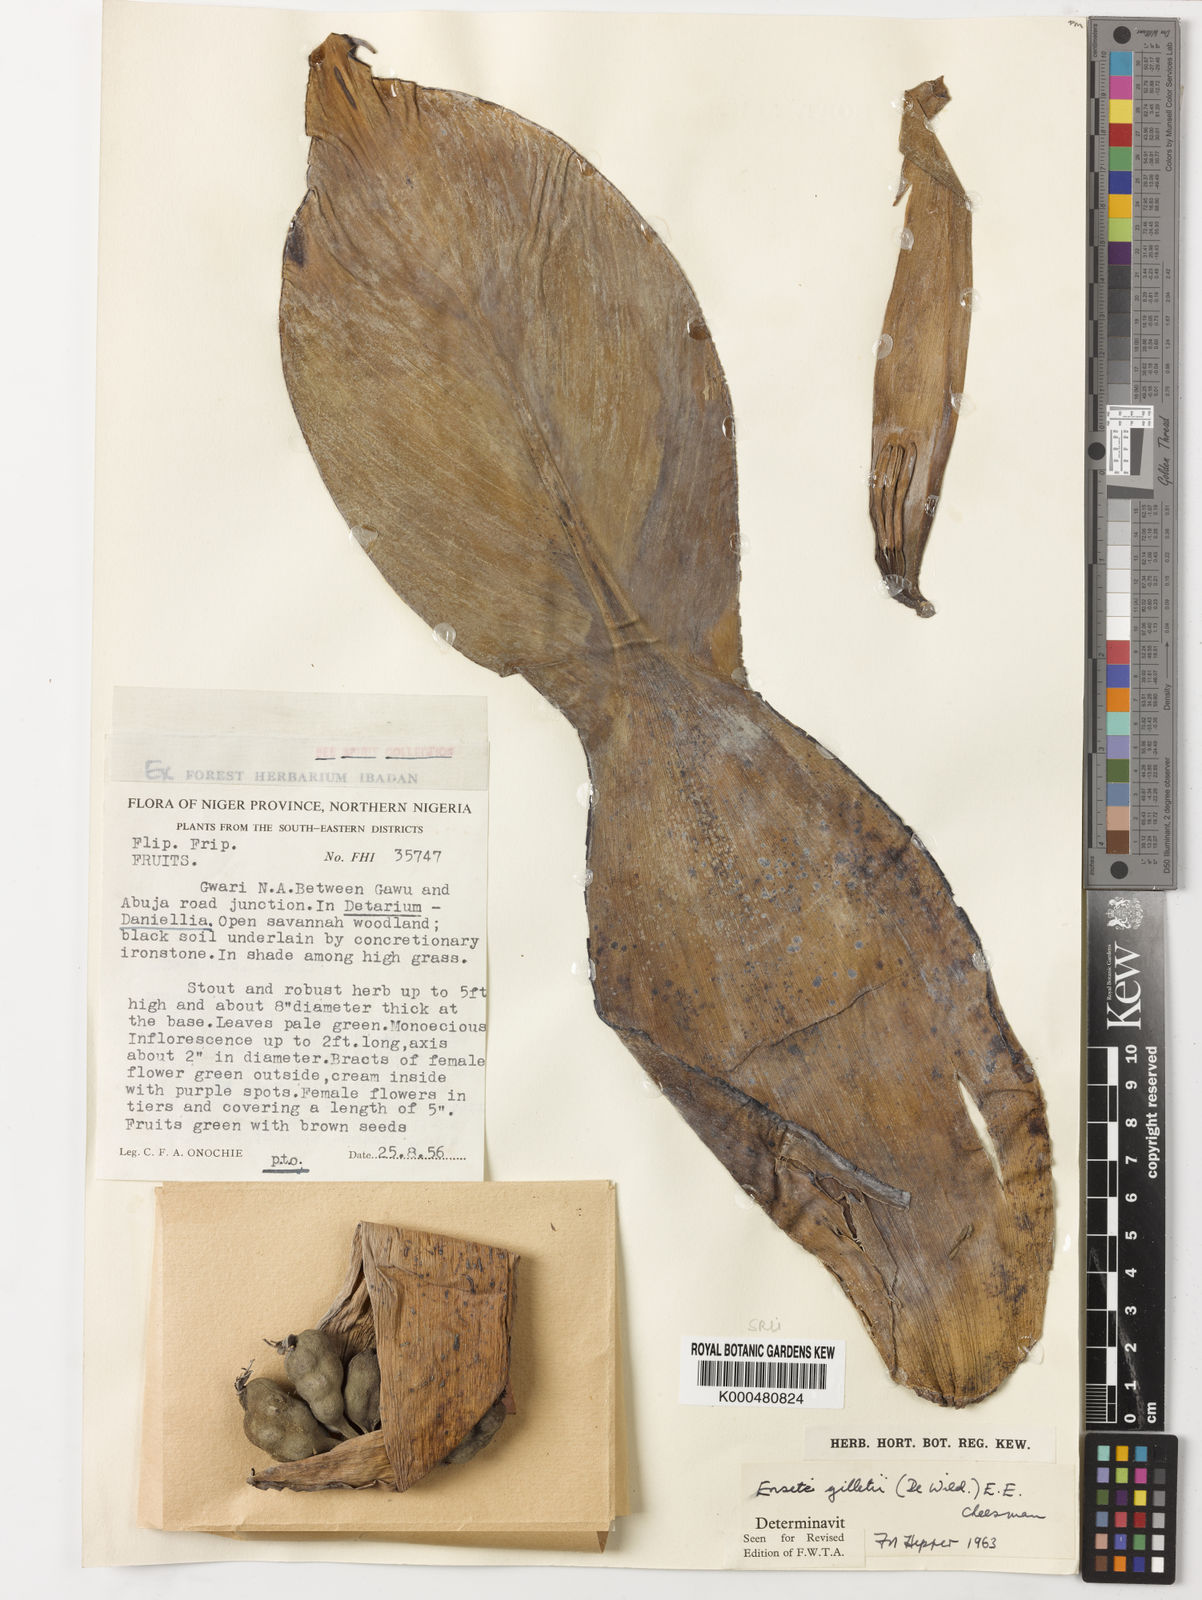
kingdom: Plantae
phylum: Tracheophyta
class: Liliopsida
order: Zingiberales
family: Musaceae
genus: Ensete
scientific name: Ensete livingstonianum
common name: Livingston's banana
